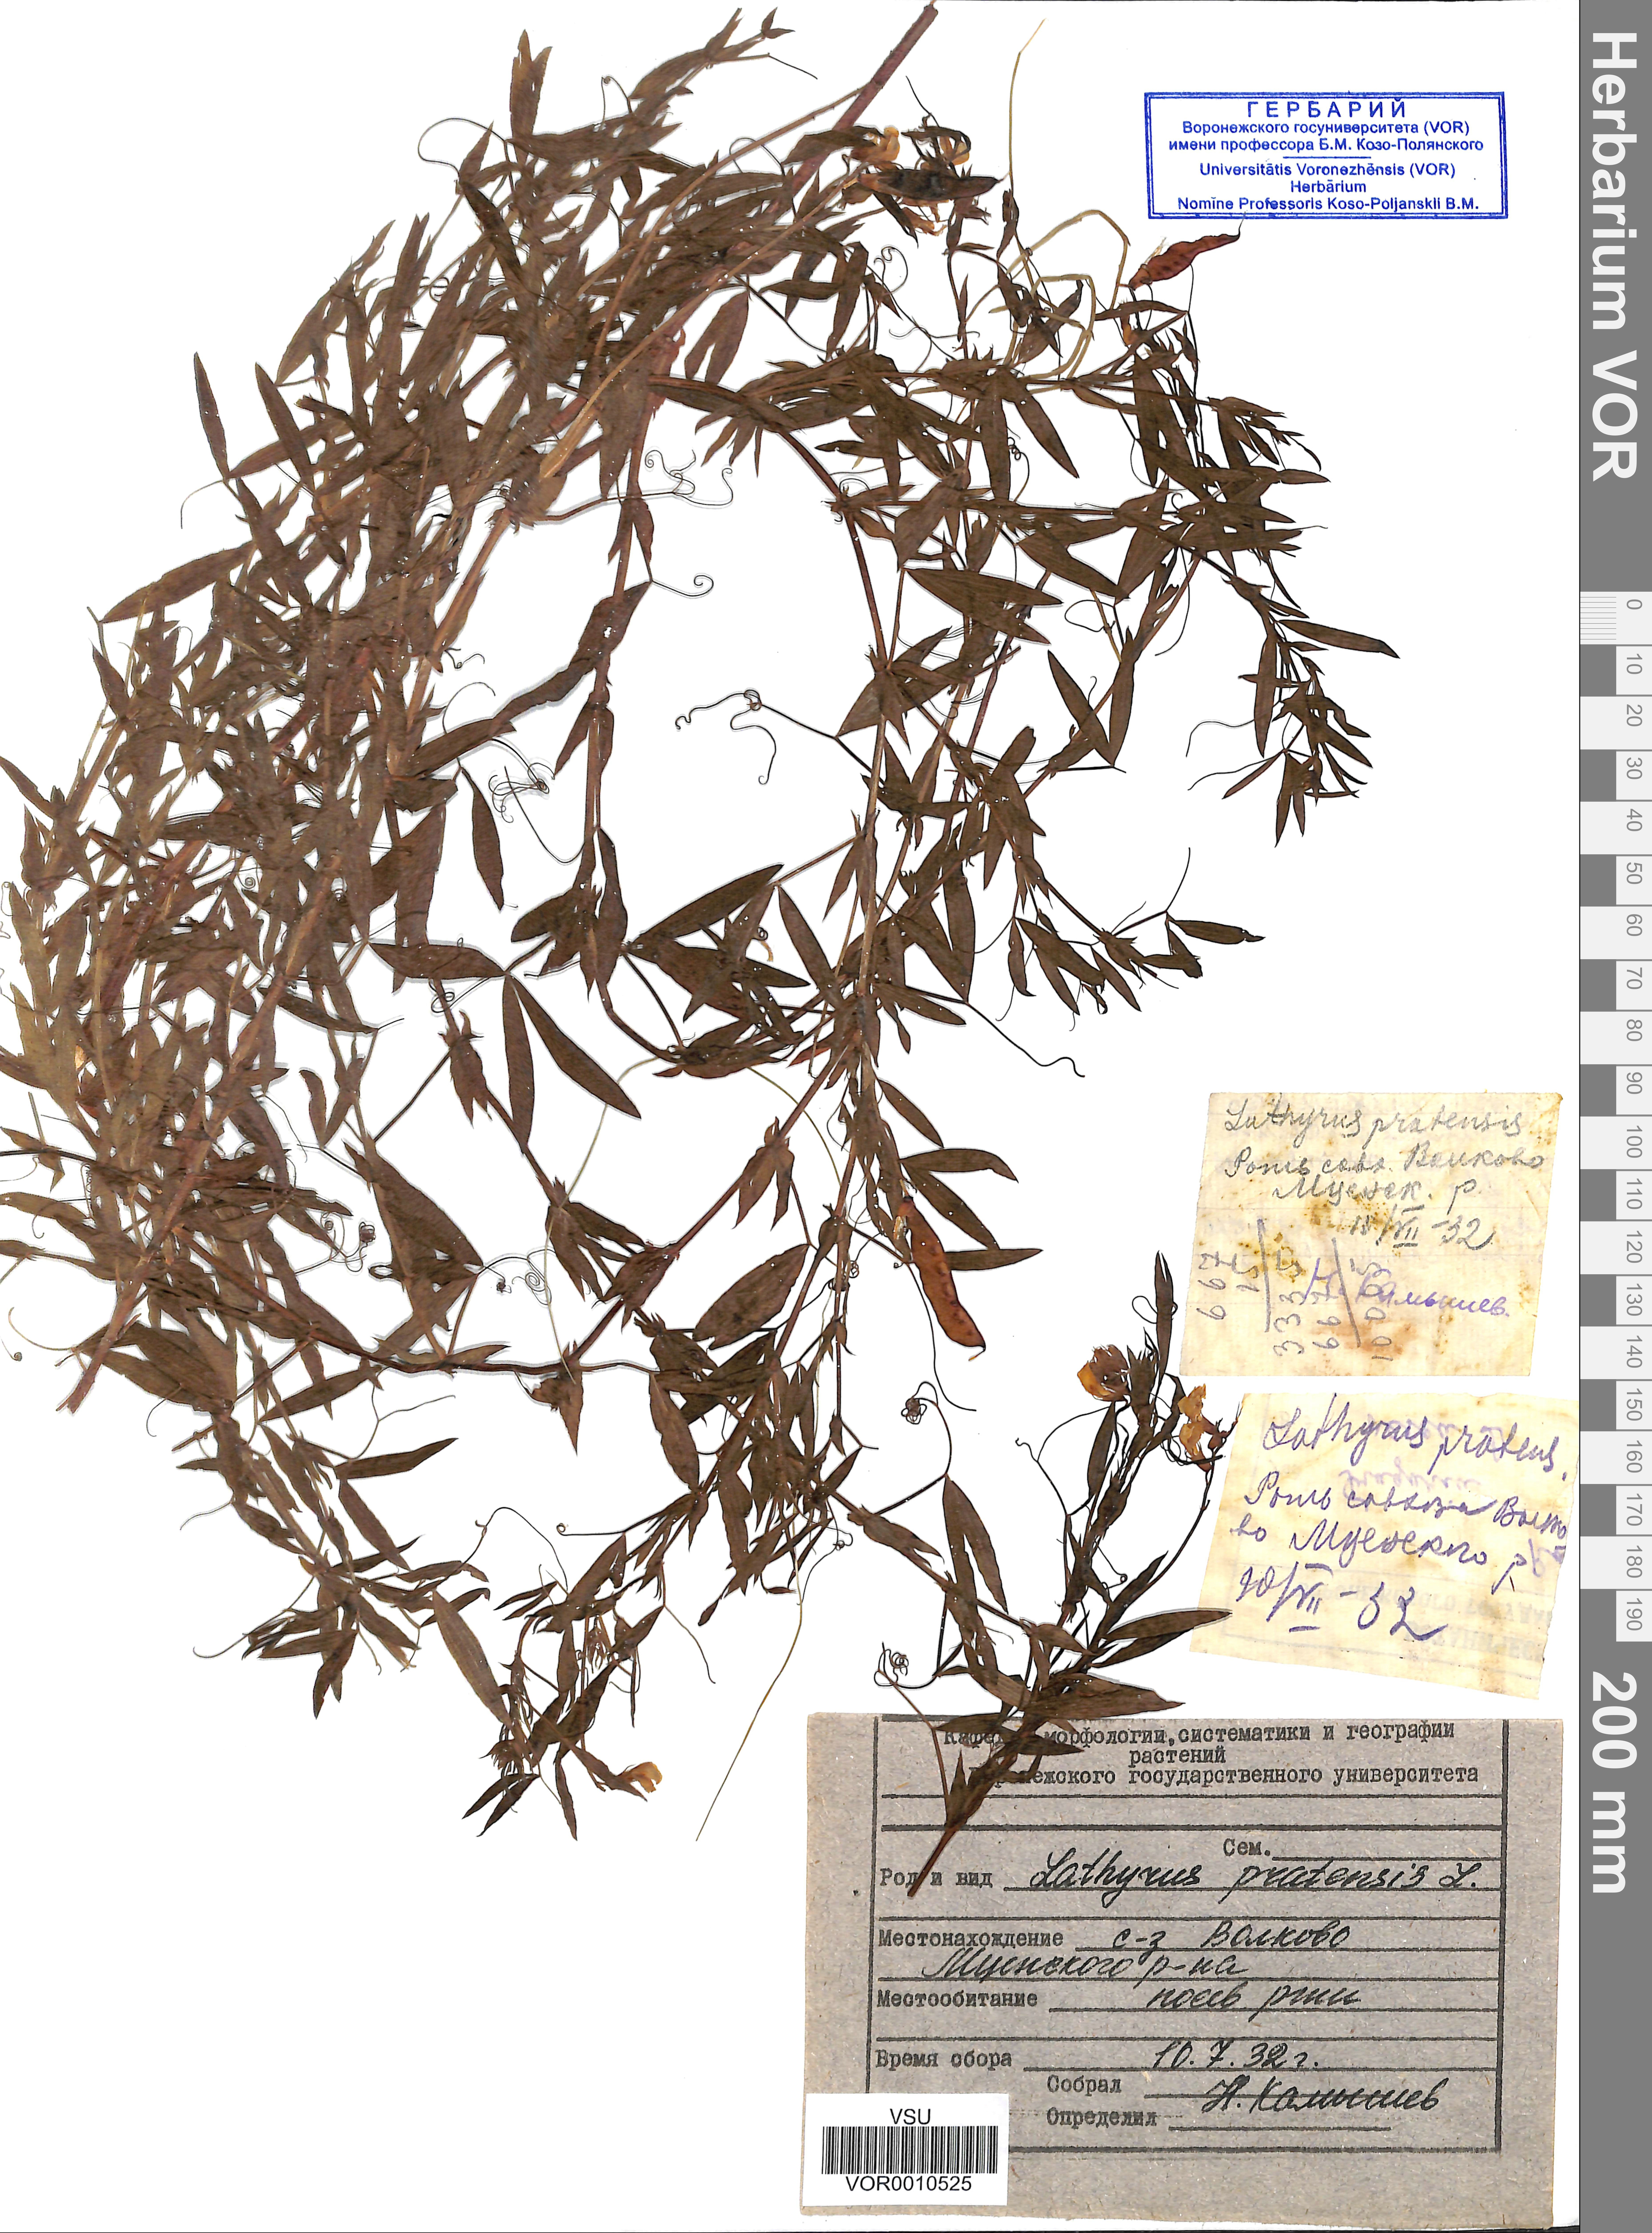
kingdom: Plantae
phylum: Tracheophyta
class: Magnoliopsida
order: Fabales
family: Fabaceae
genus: Lathyrus
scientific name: Lathyrus pratensis
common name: Meadow vetchling
